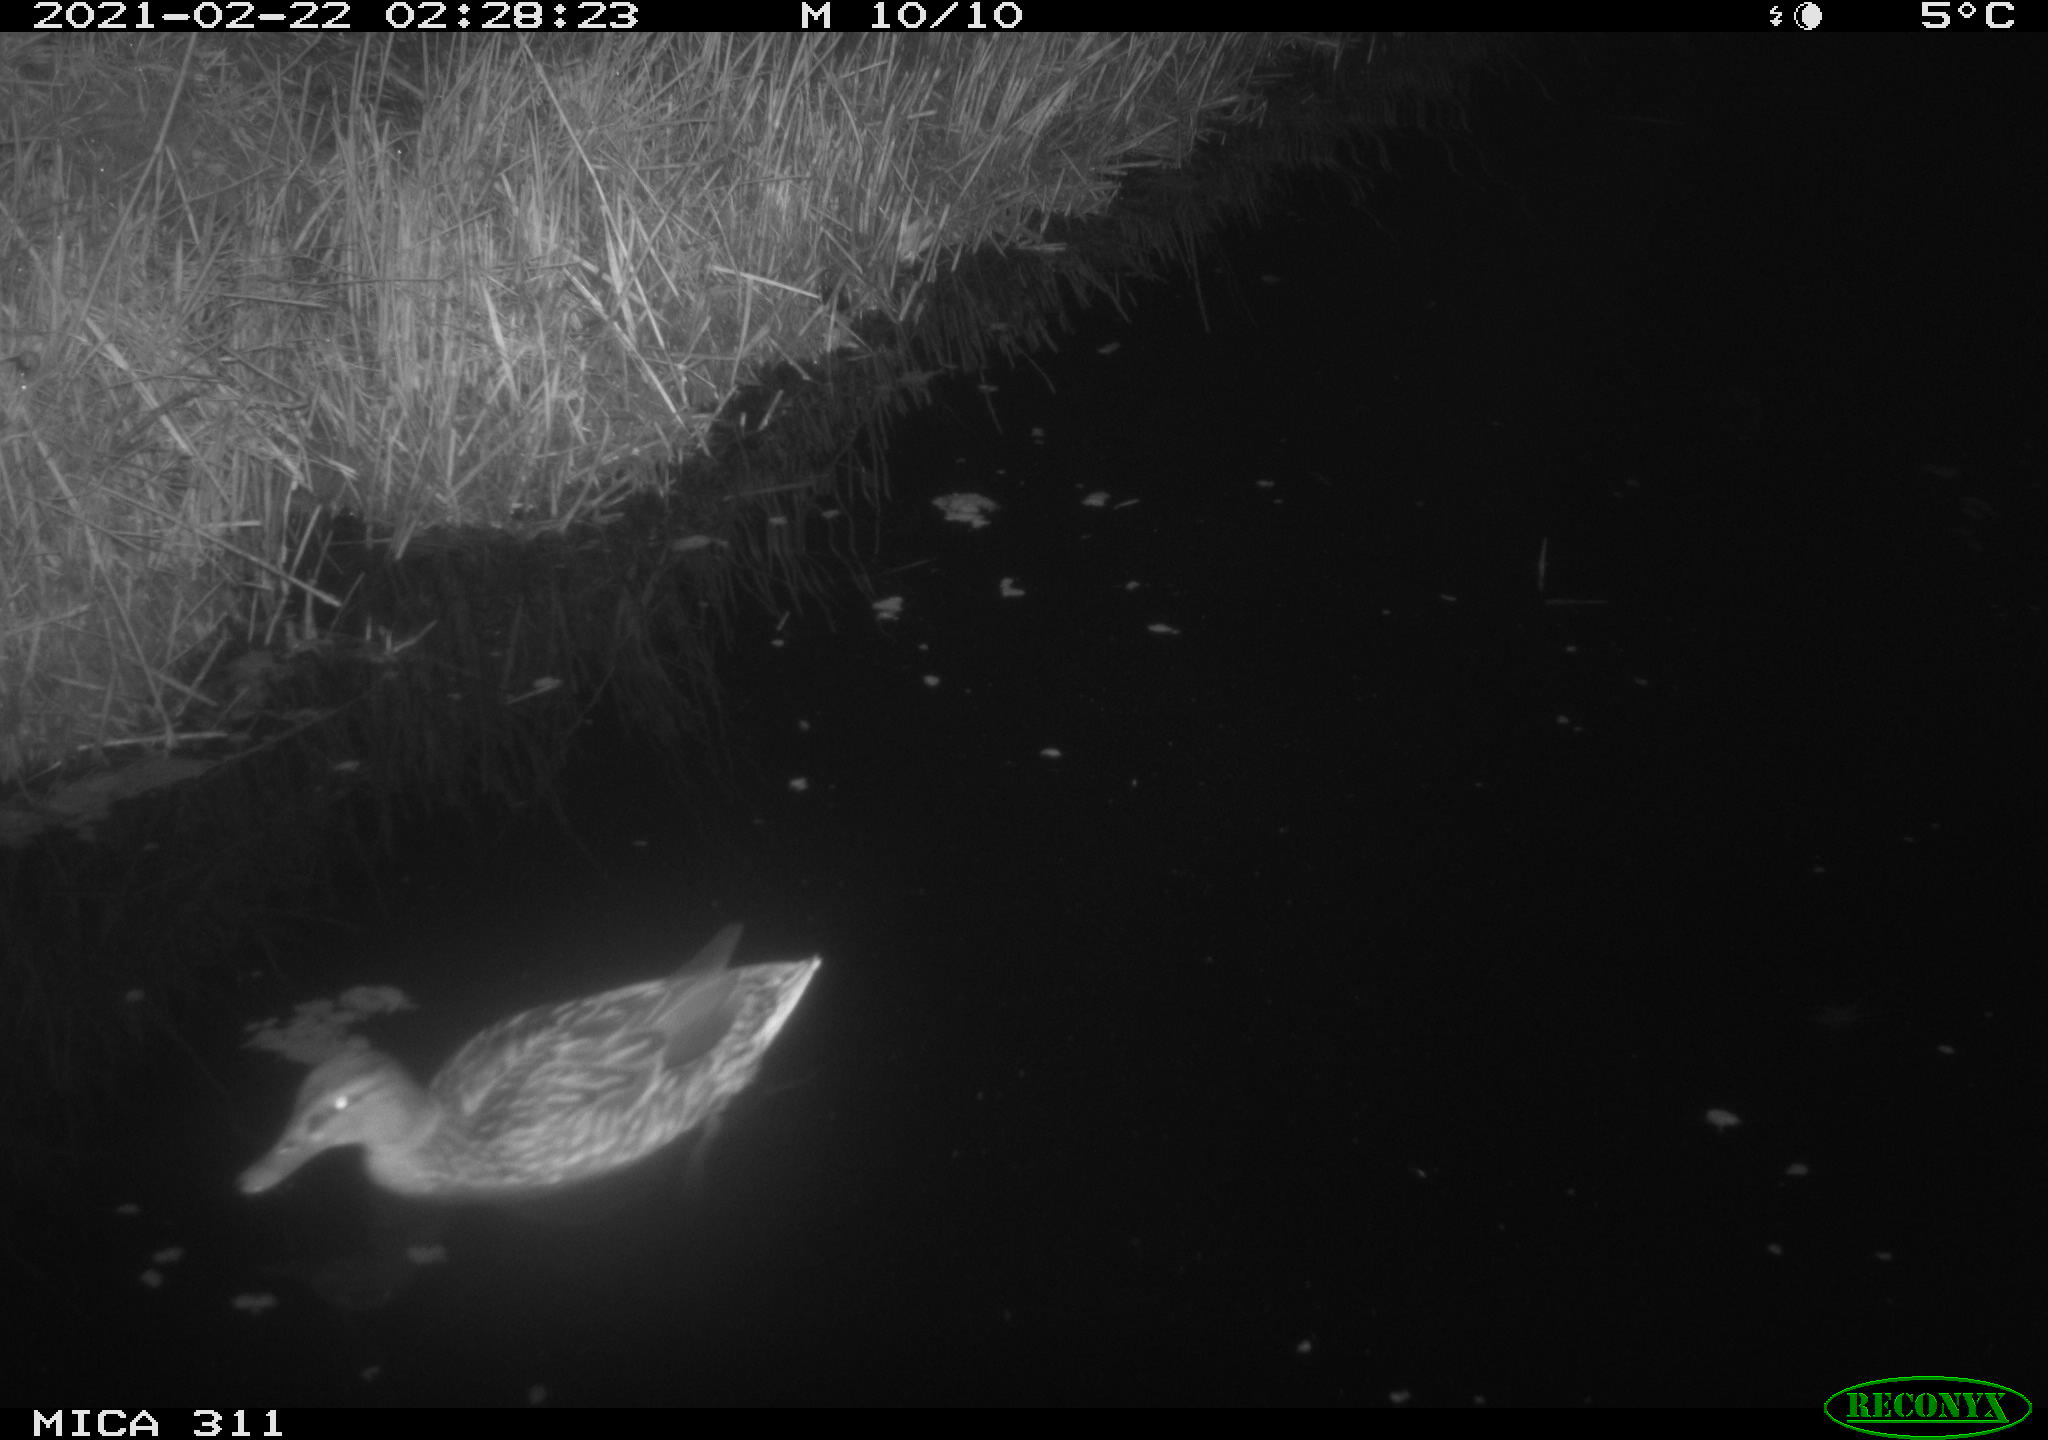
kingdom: Animalia
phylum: Chordata
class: Aves
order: Anseriformes
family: Anatidae
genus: Anas
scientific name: Anas platyrhynchos
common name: Mallard
